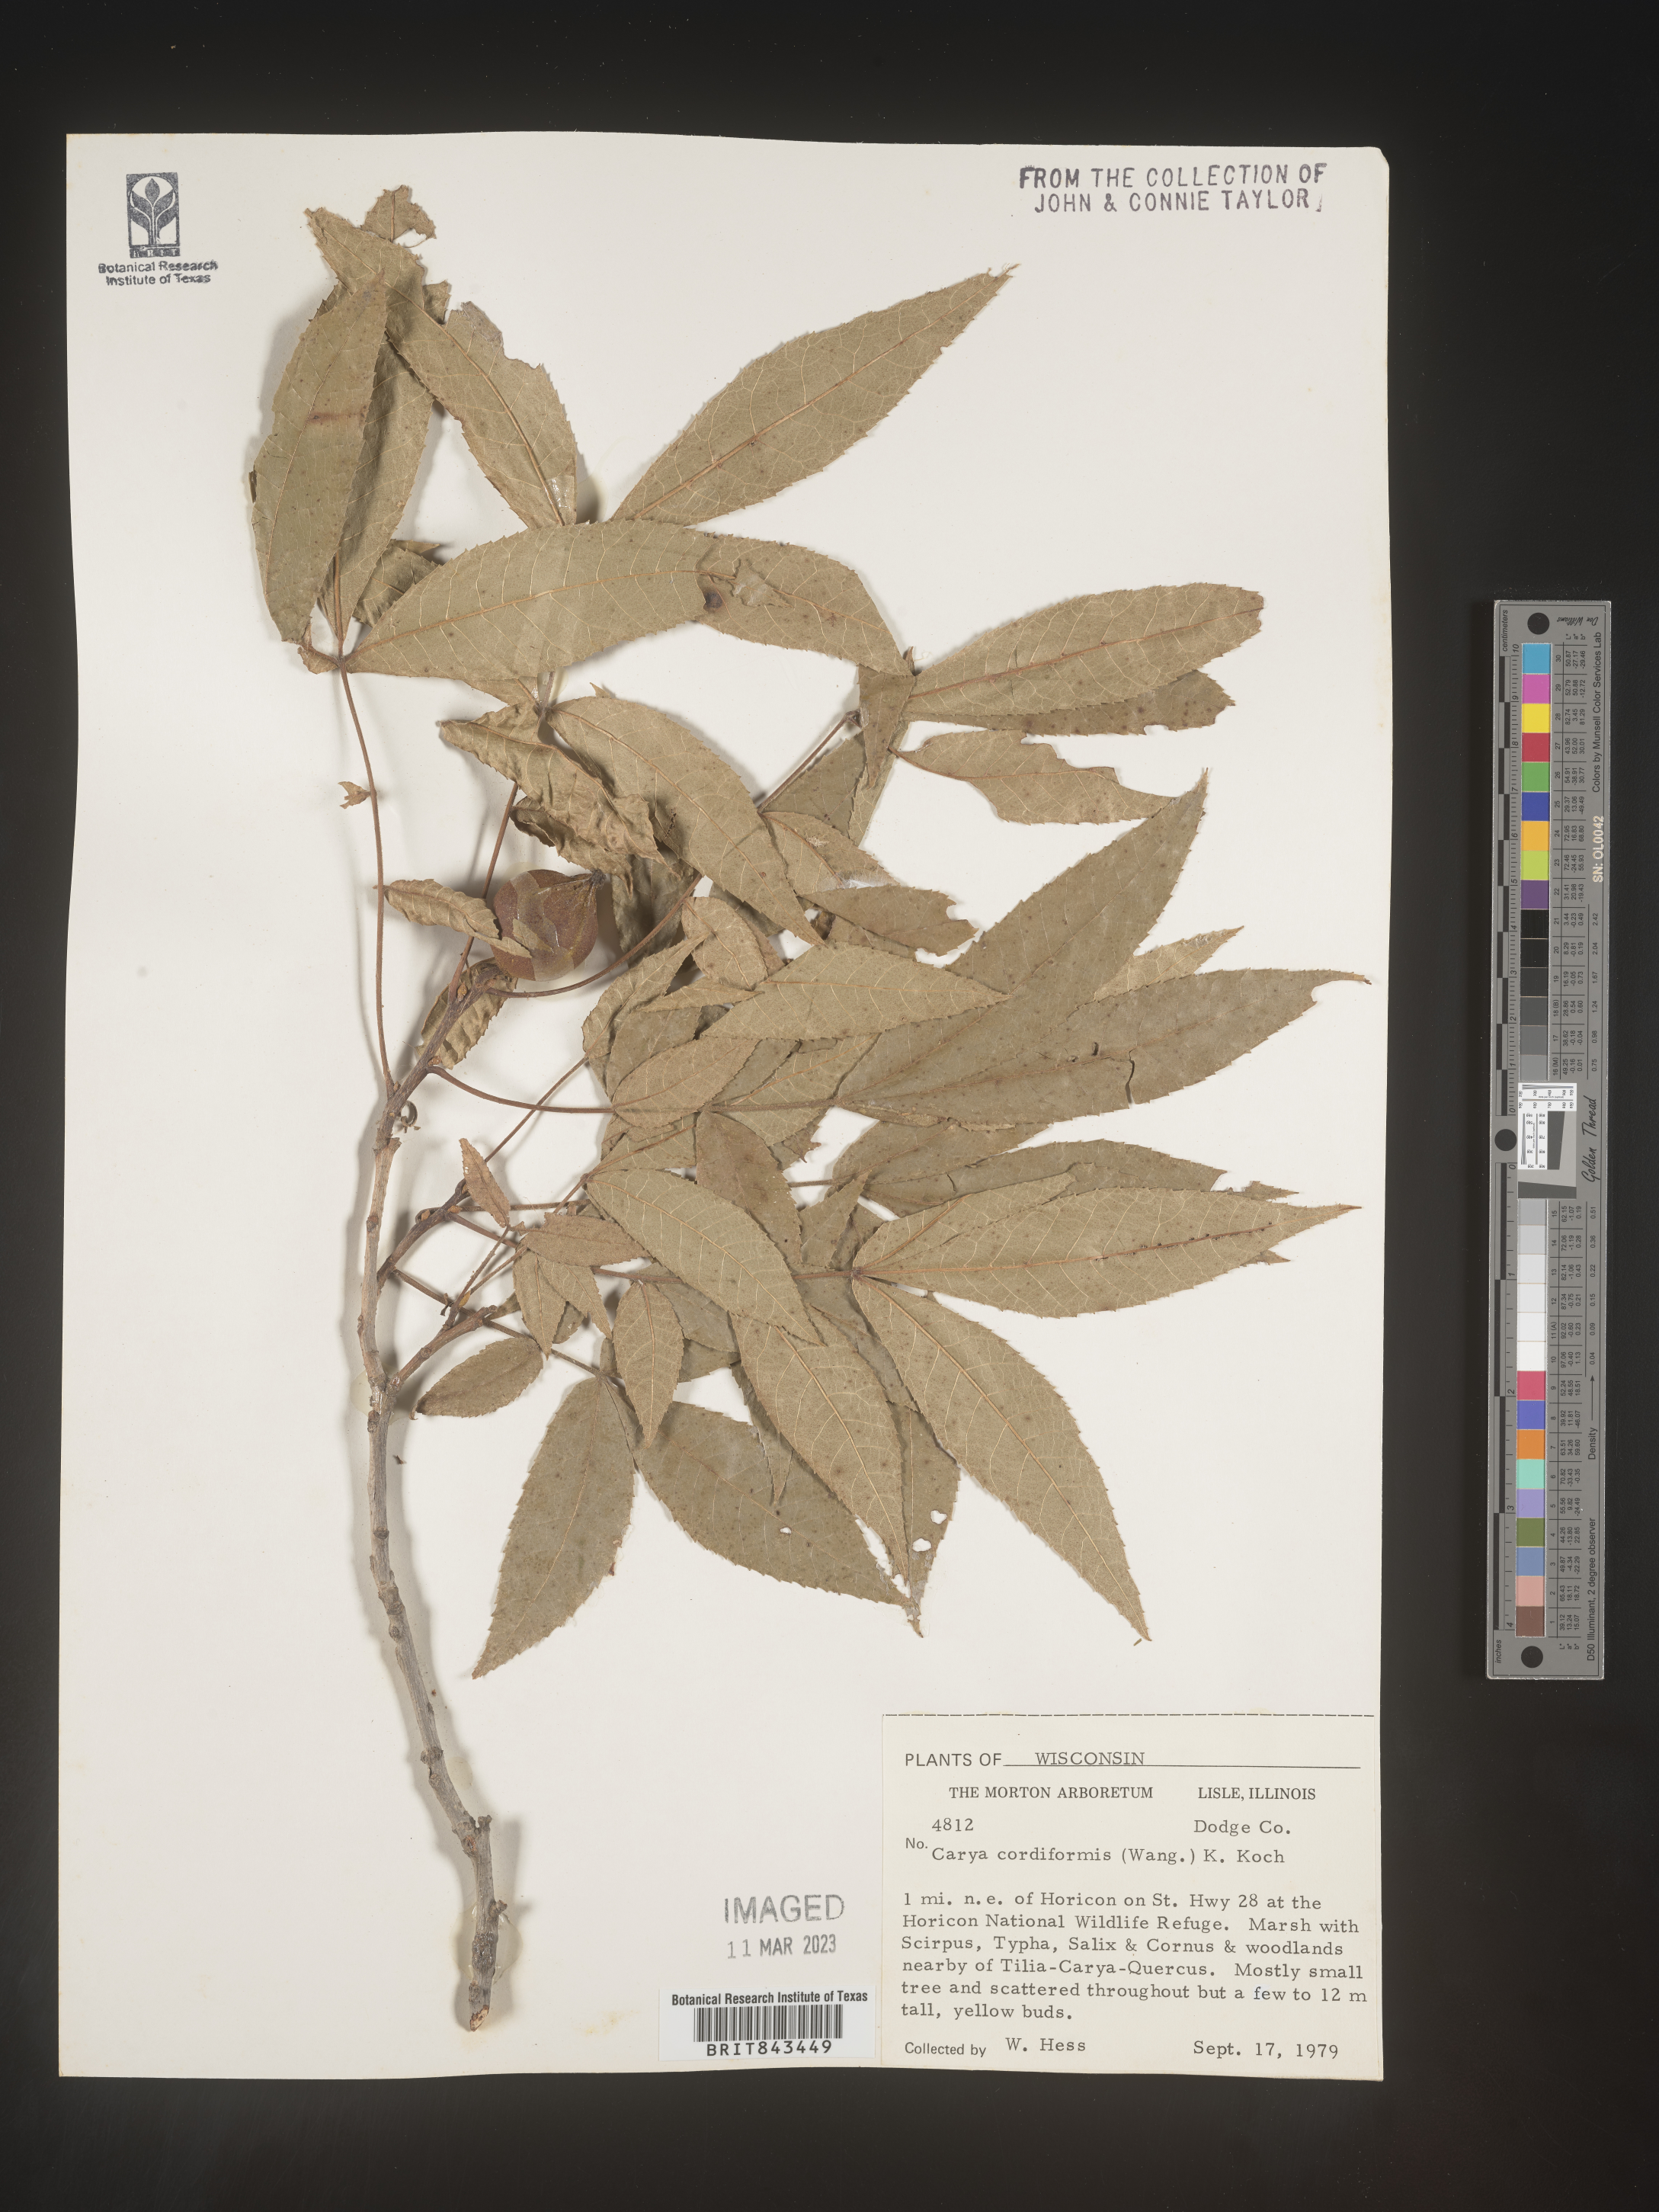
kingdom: Plantae
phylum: Tracheophyta
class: Magnoliopsida
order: Fagales
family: Juglandaceae
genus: Carya
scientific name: Carya cordiformis
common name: Bitternut hickory
